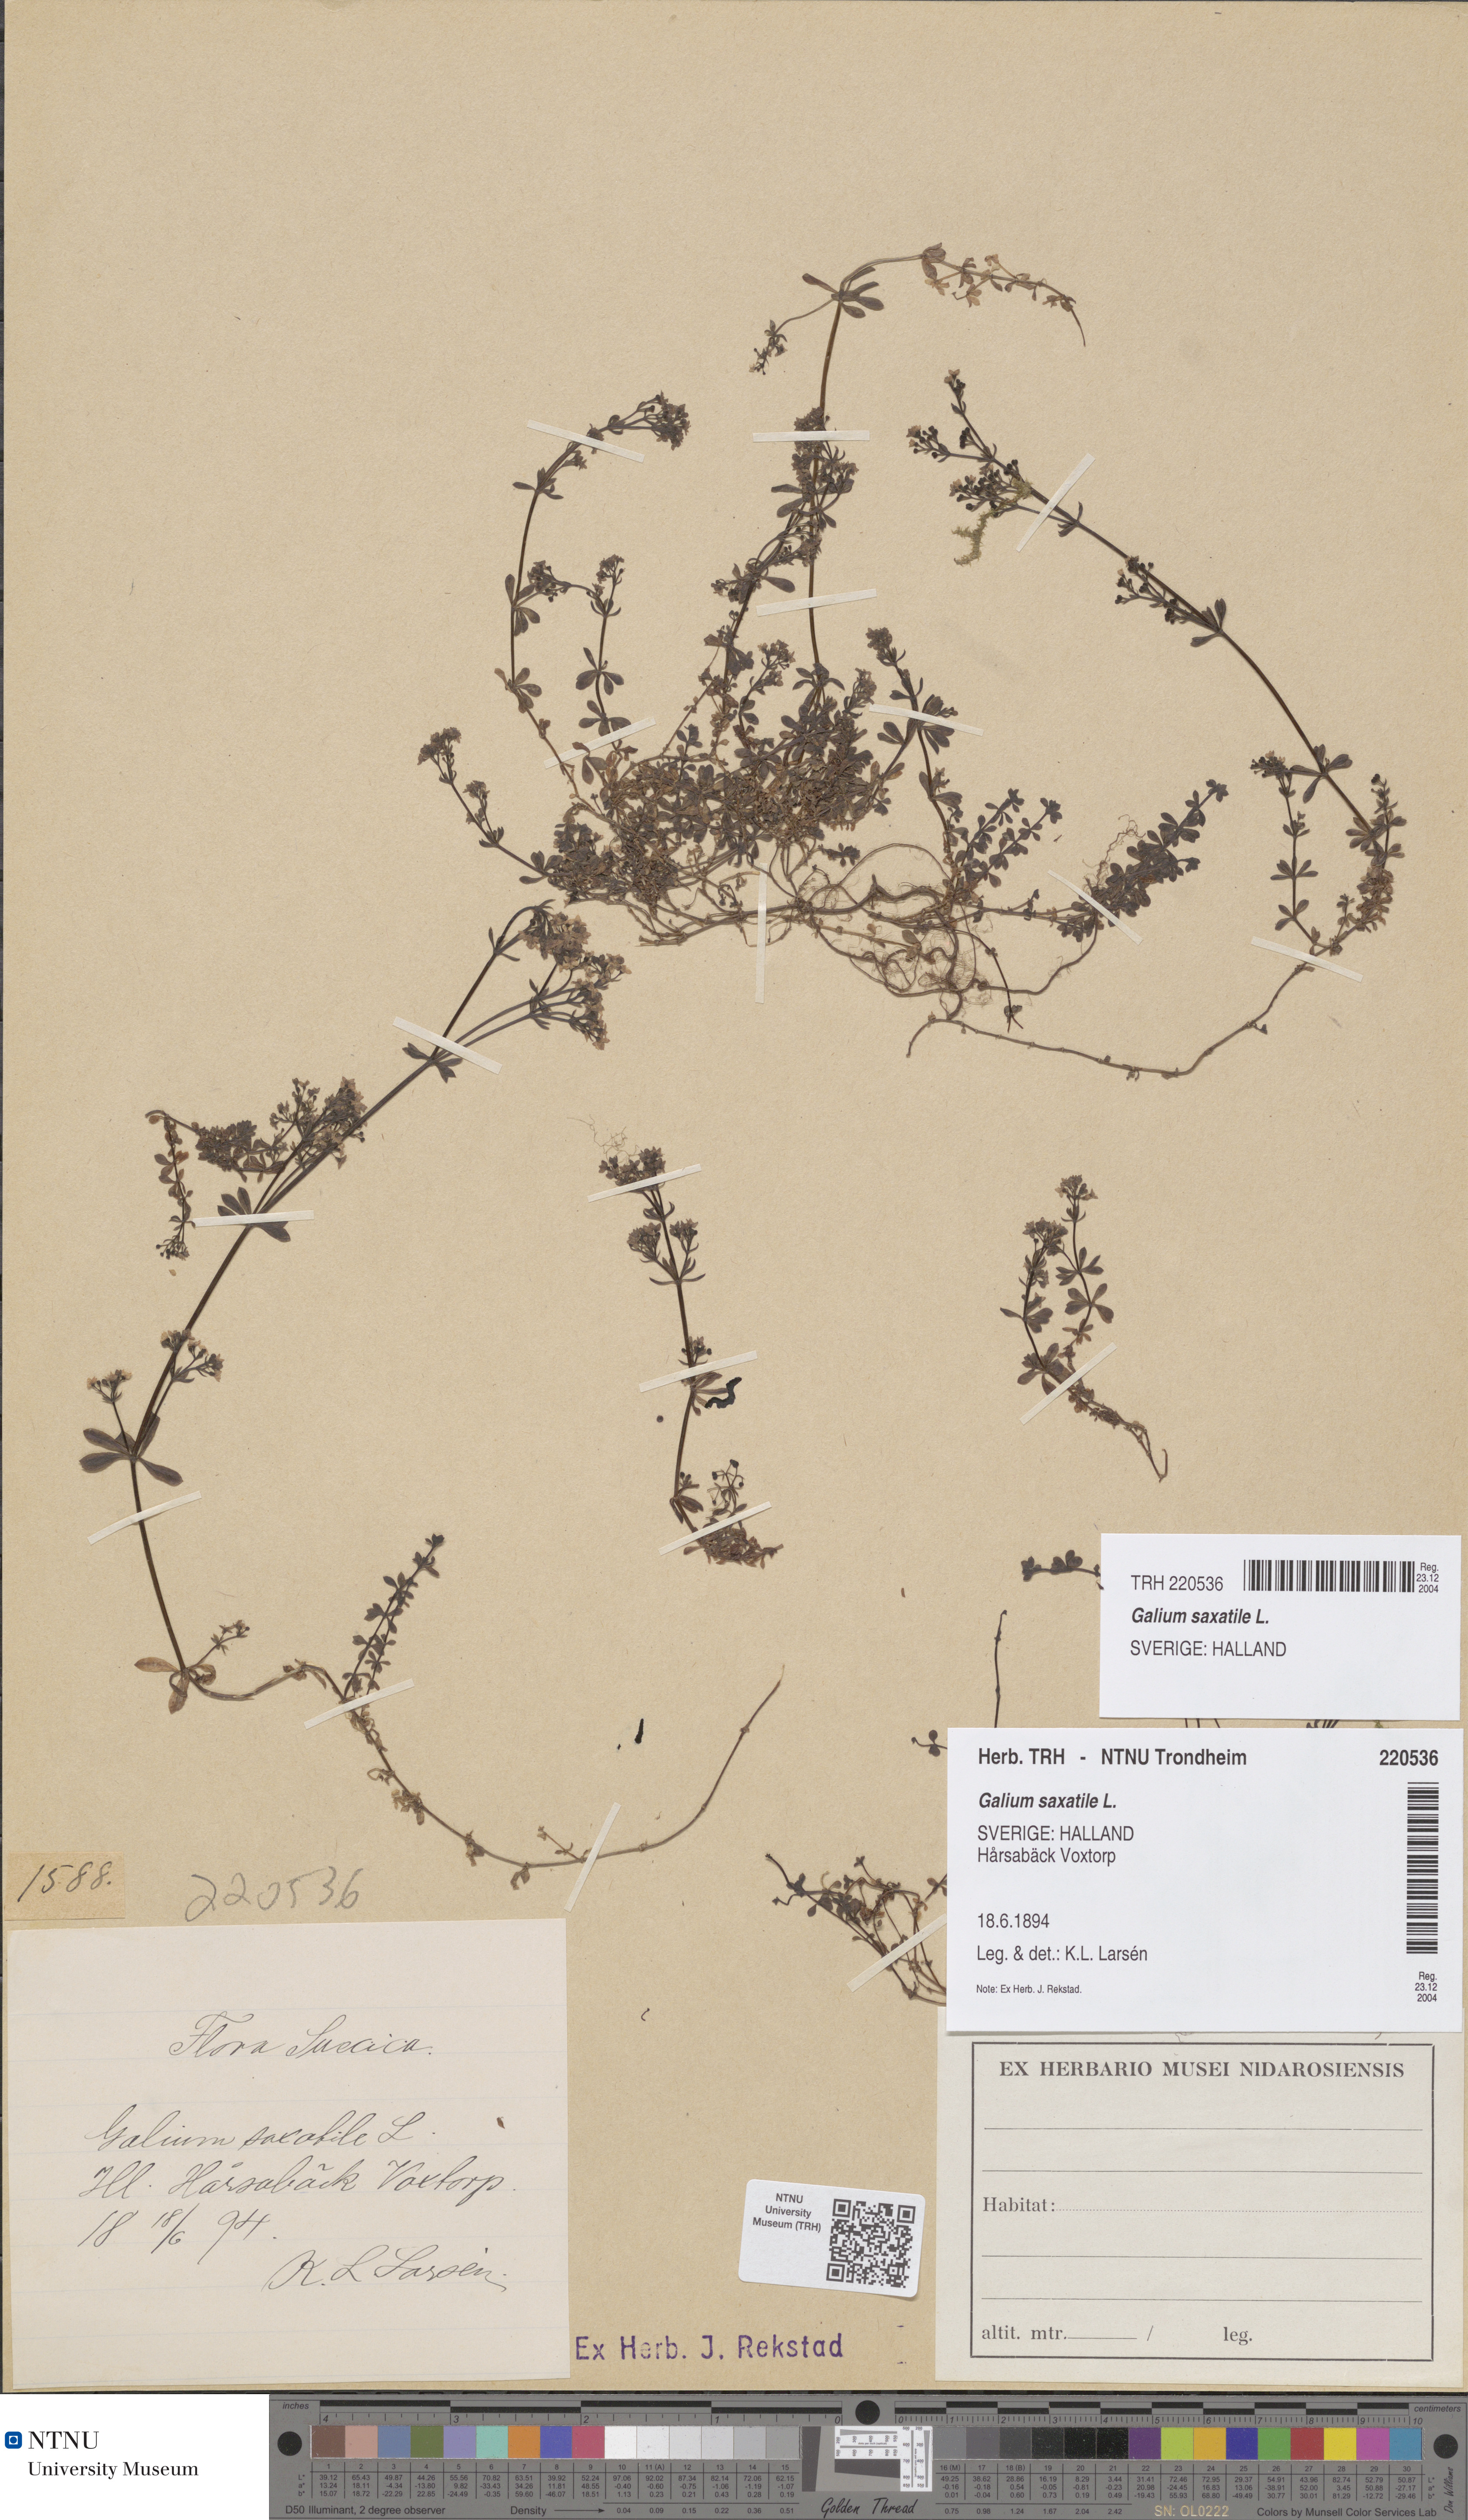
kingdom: Plantae
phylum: Tracheophyta
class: Magnoliopsida
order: Gentianales
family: Rubiaceae
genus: Galium
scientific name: Galium saxatile
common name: Heath bedstraw
